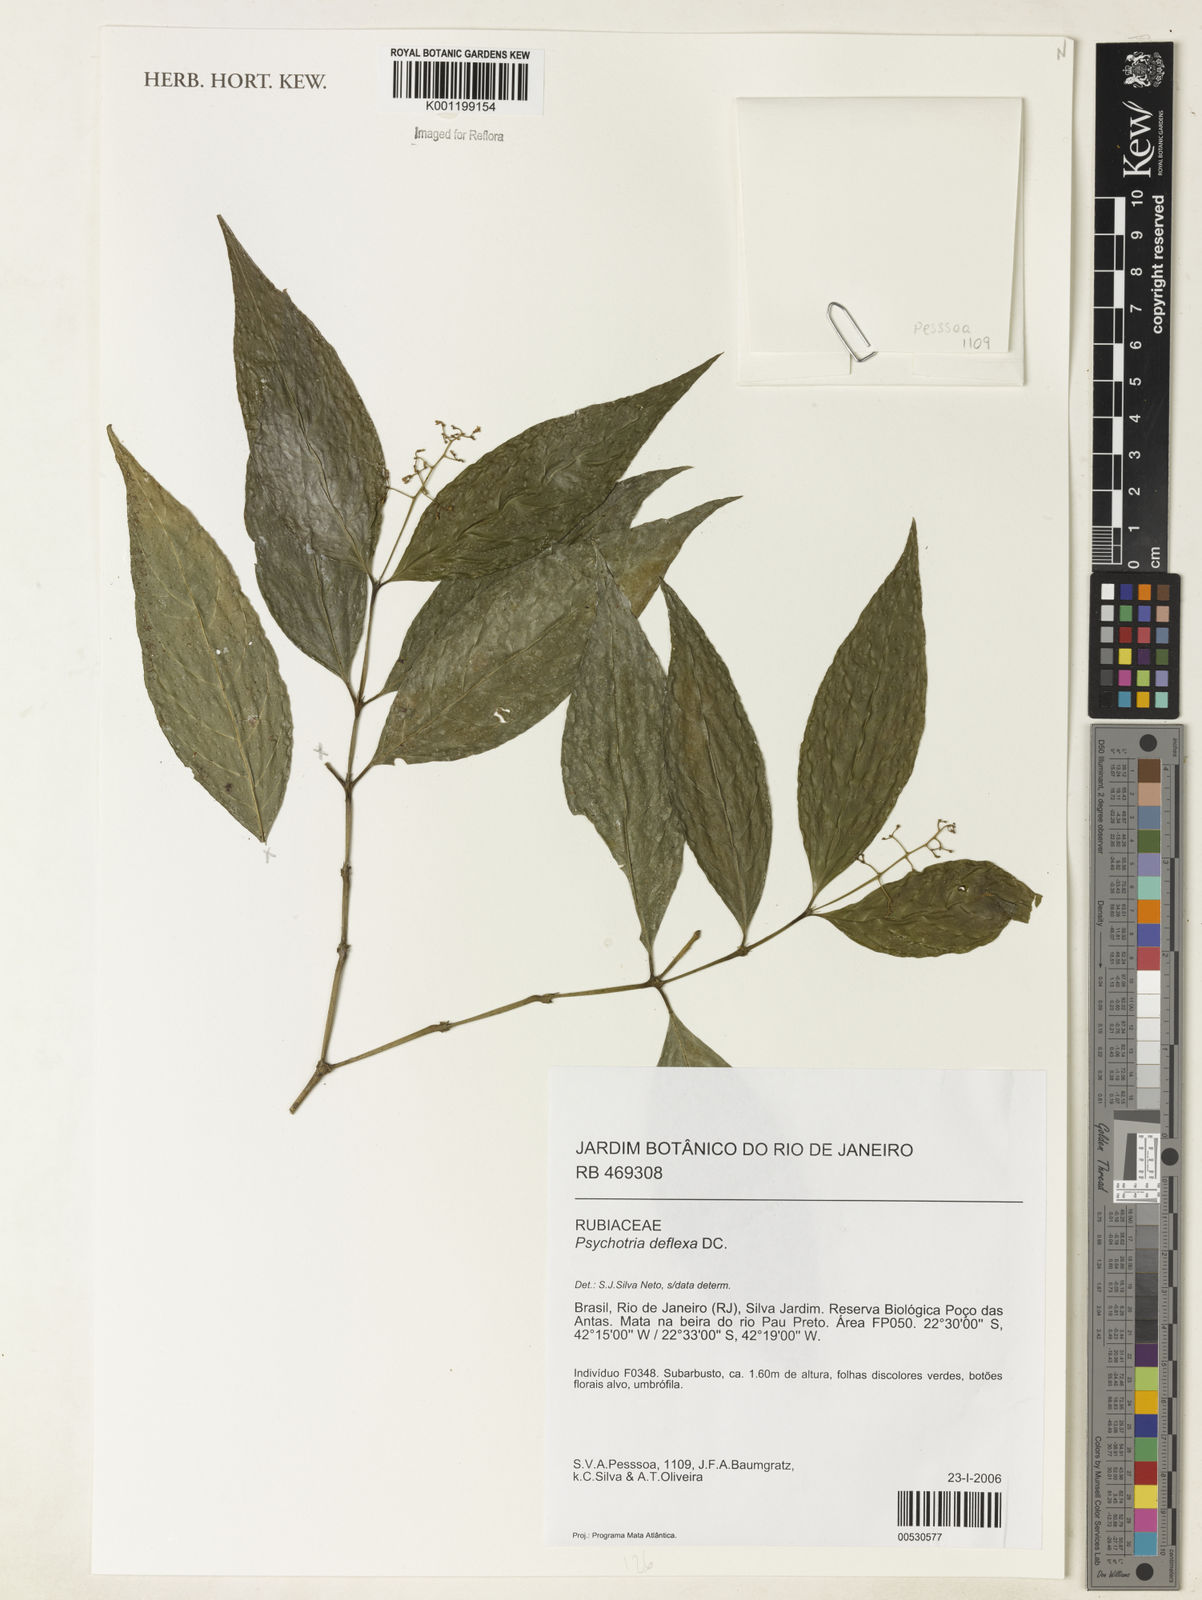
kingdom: Plantae
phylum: Tracheophyta
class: Magnoliopsida
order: Gentianales
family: Rubiaceae
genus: Palicourea
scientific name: Palicourea deflexa
